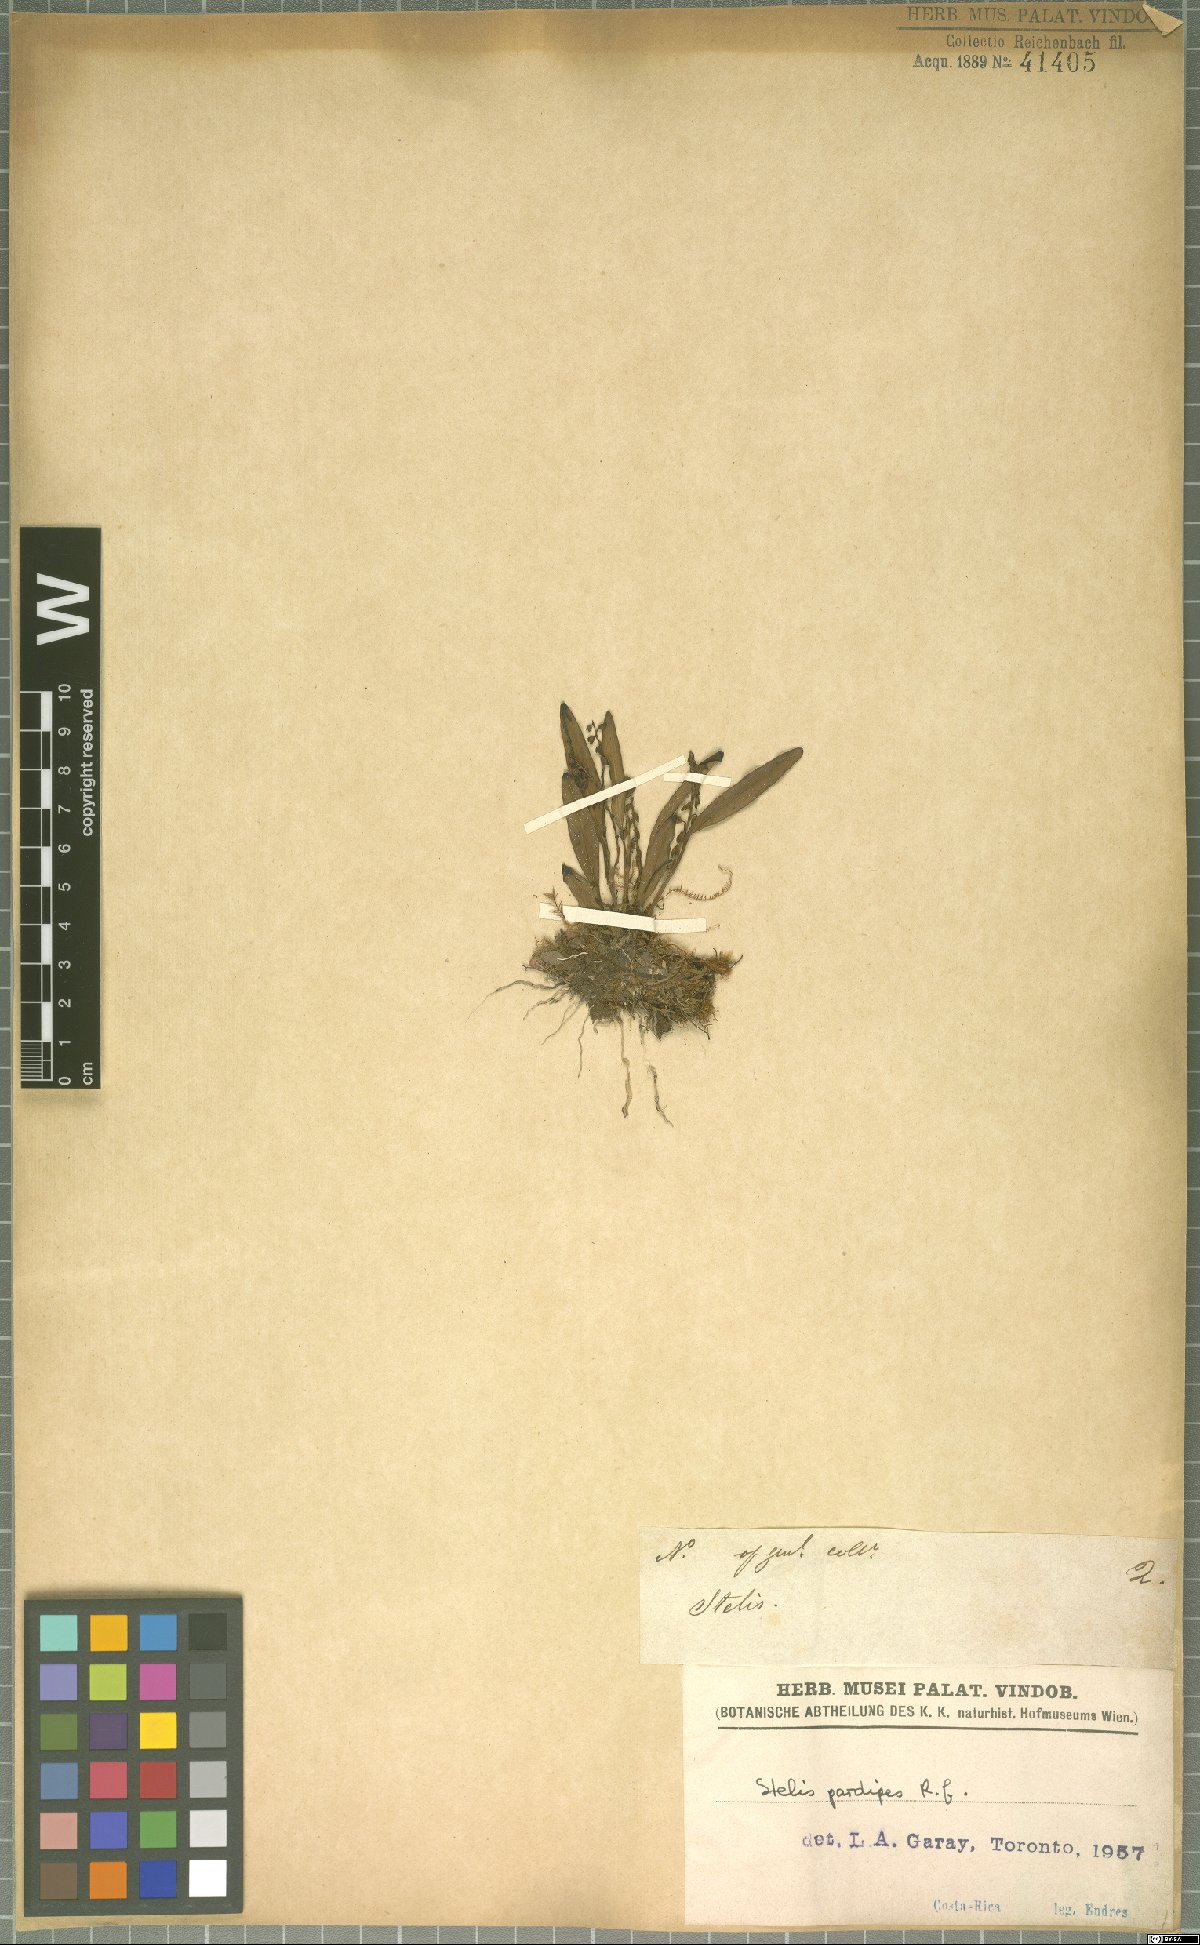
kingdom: Plantae
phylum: Tracheophyta
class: Liliopsida
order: Asparagales
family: Orchidaceae
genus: Stelis
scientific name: Stelis pardipes
